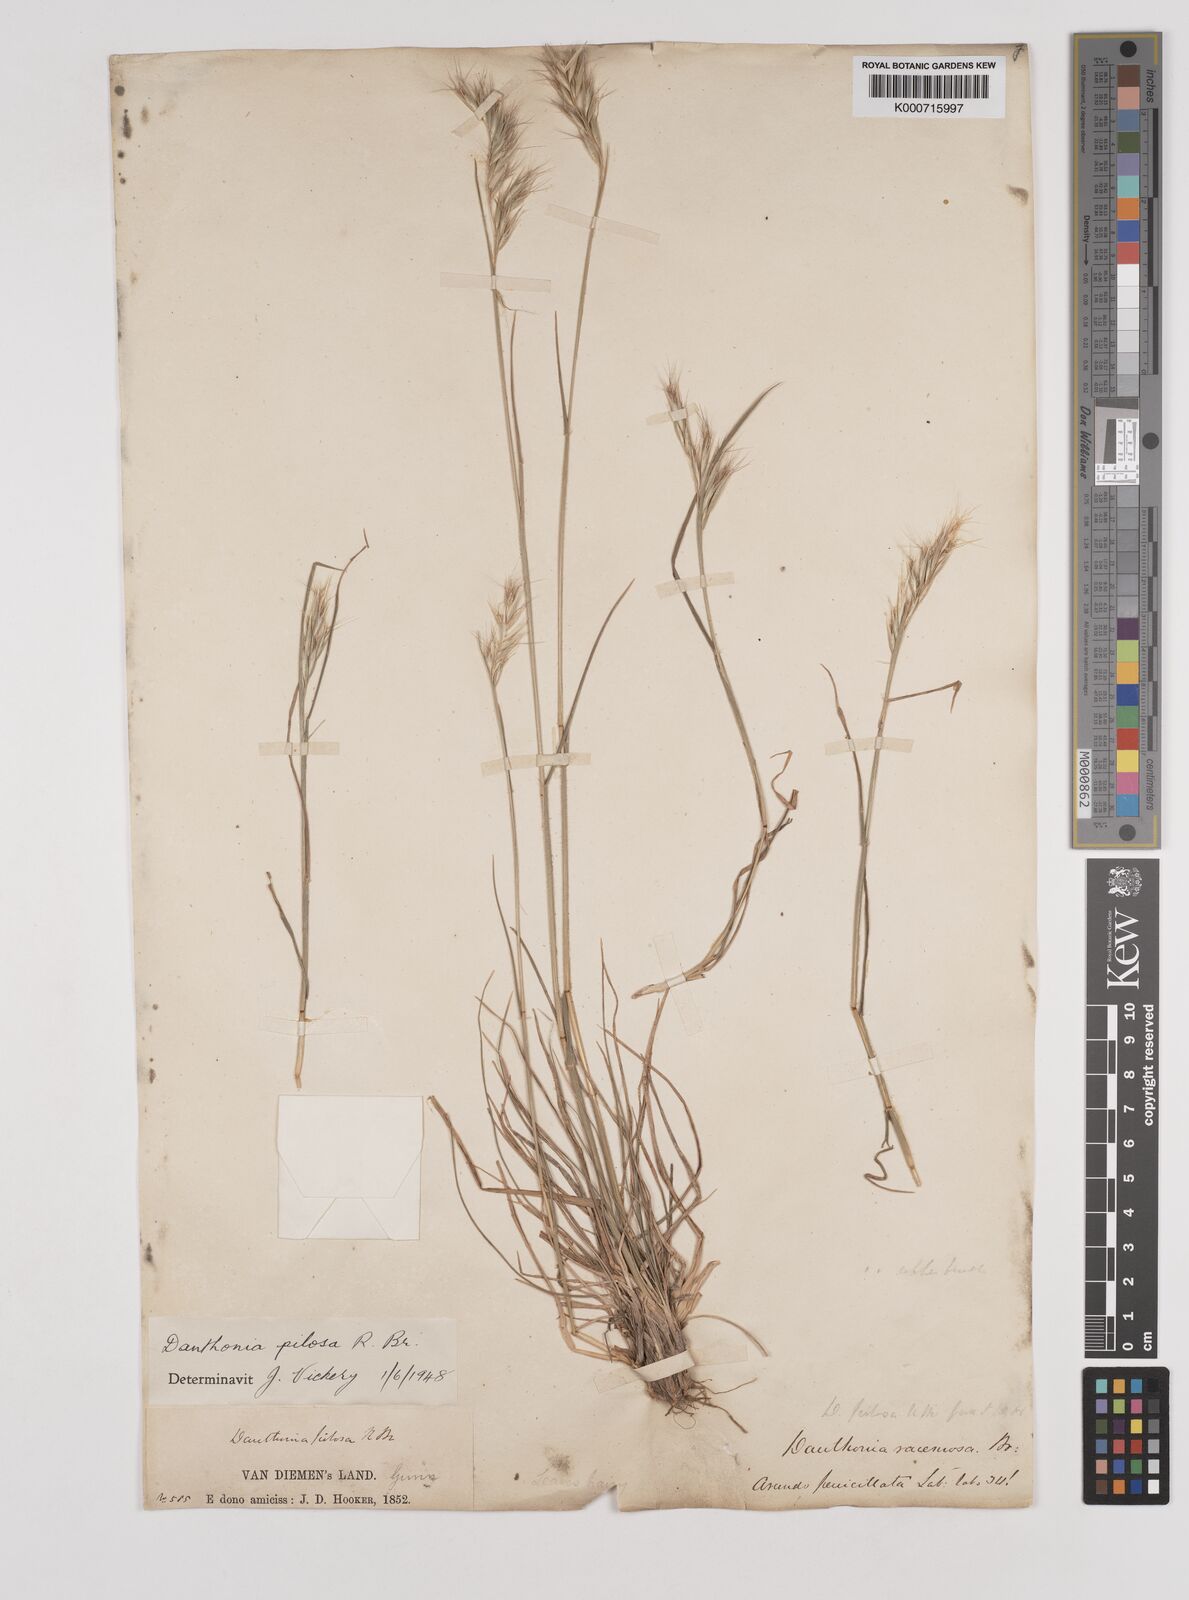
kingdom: Plantae
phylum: Tracheophyta
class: Liliopsida
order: Poales
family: Poaceae
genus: Rytidosperma
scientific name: Rytidosperma pilosum
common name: Hairy wallaby grass
